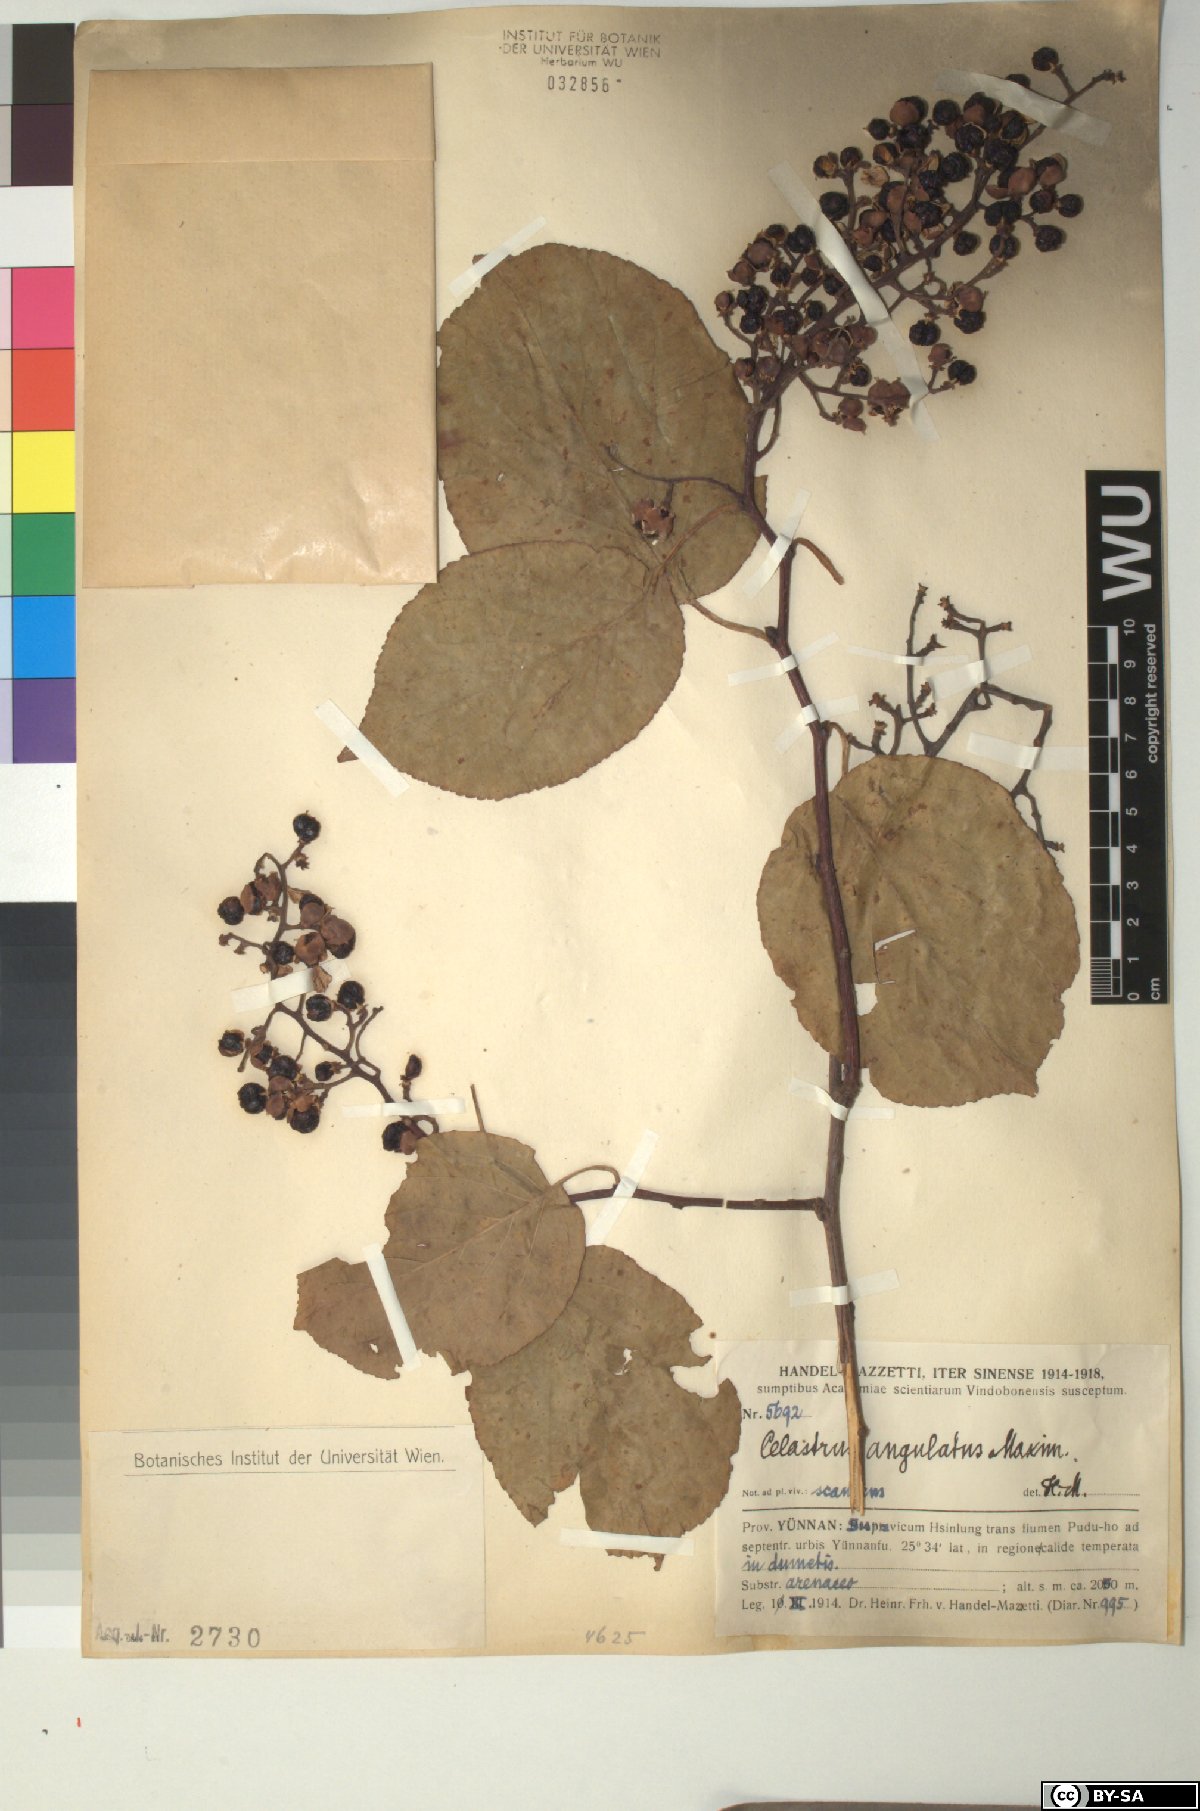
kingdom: Plantae
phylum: Tracheophyta
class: Magnoliopsida
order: Celastrales
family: Celastraceae
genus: Celastrus
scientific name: Celastrus angulatus
